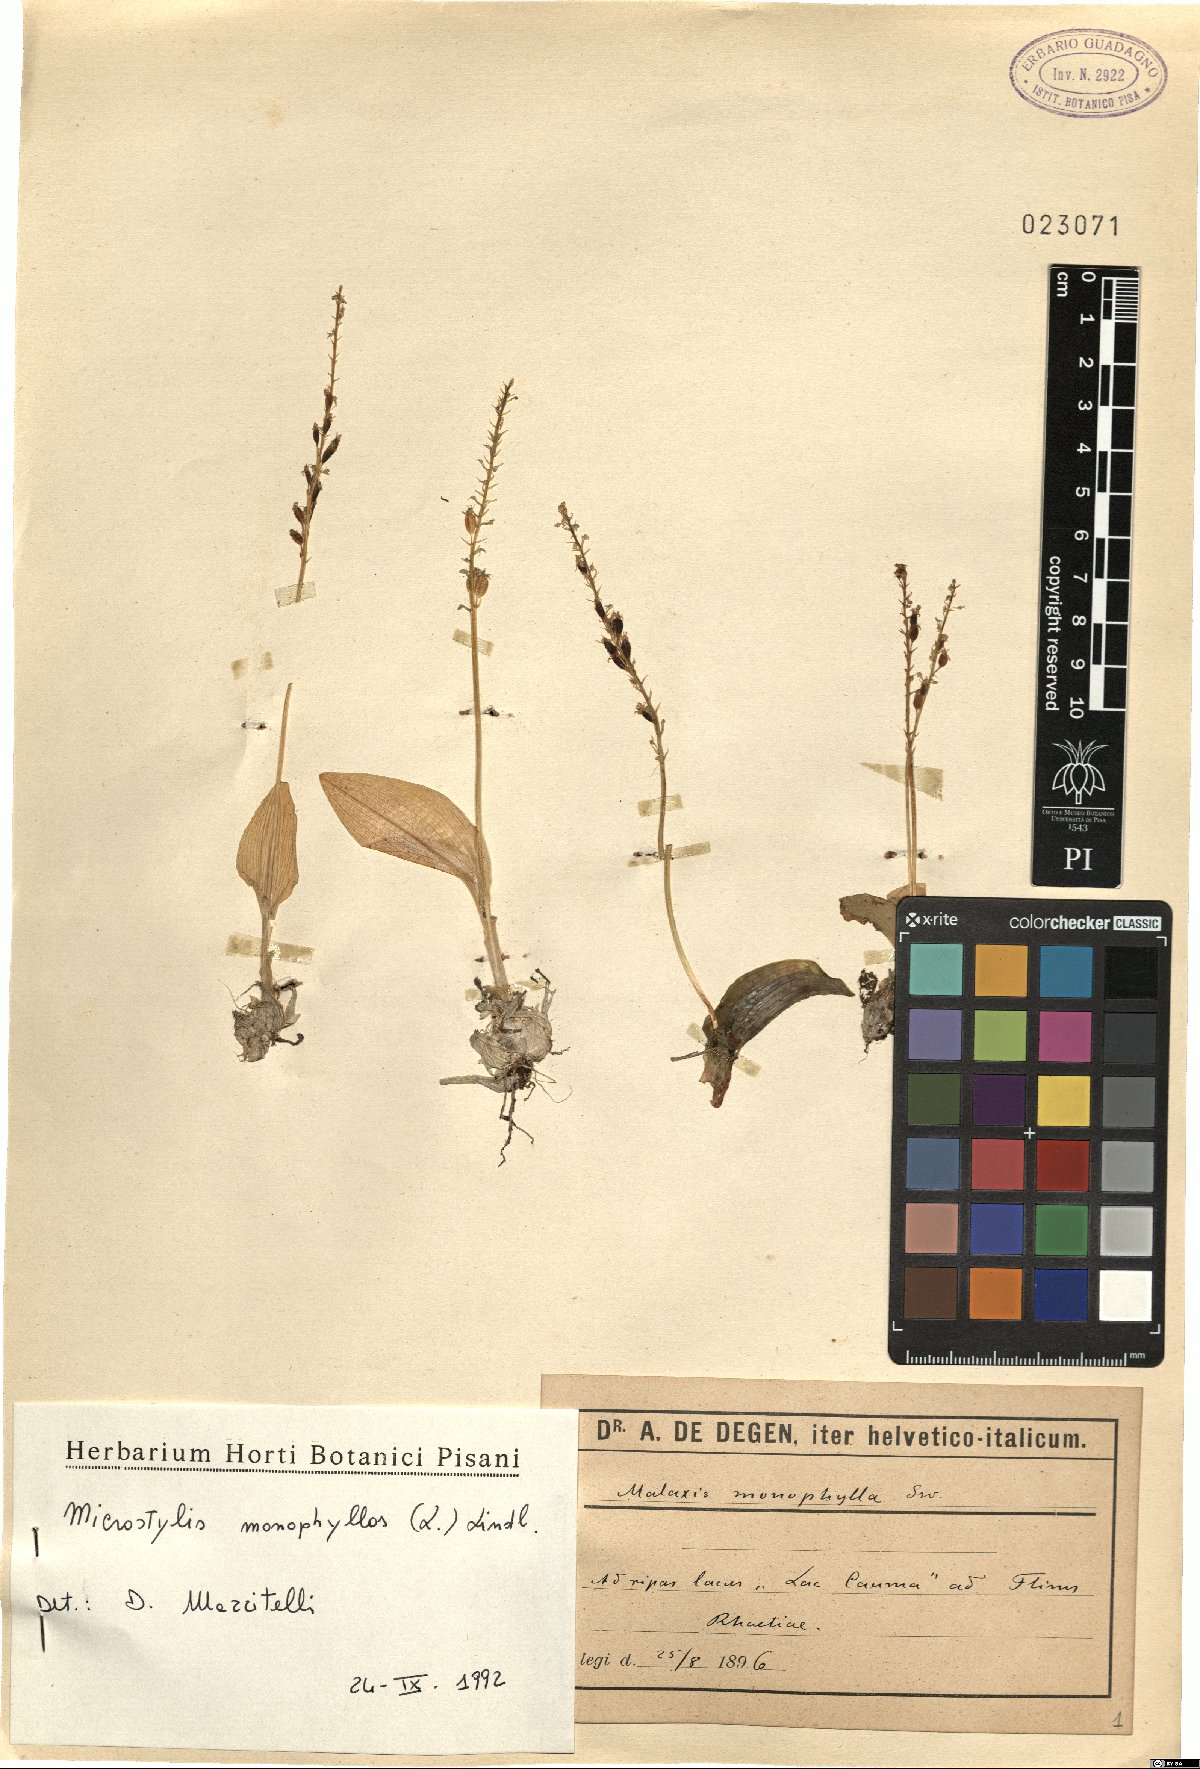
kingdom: Plantae
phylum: Tracheophyta
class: Liliopsida
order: Asparagales
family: Orchidaceae
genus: Malaxis
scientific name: Malaxis monophyllos
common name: White adder's-mouth
